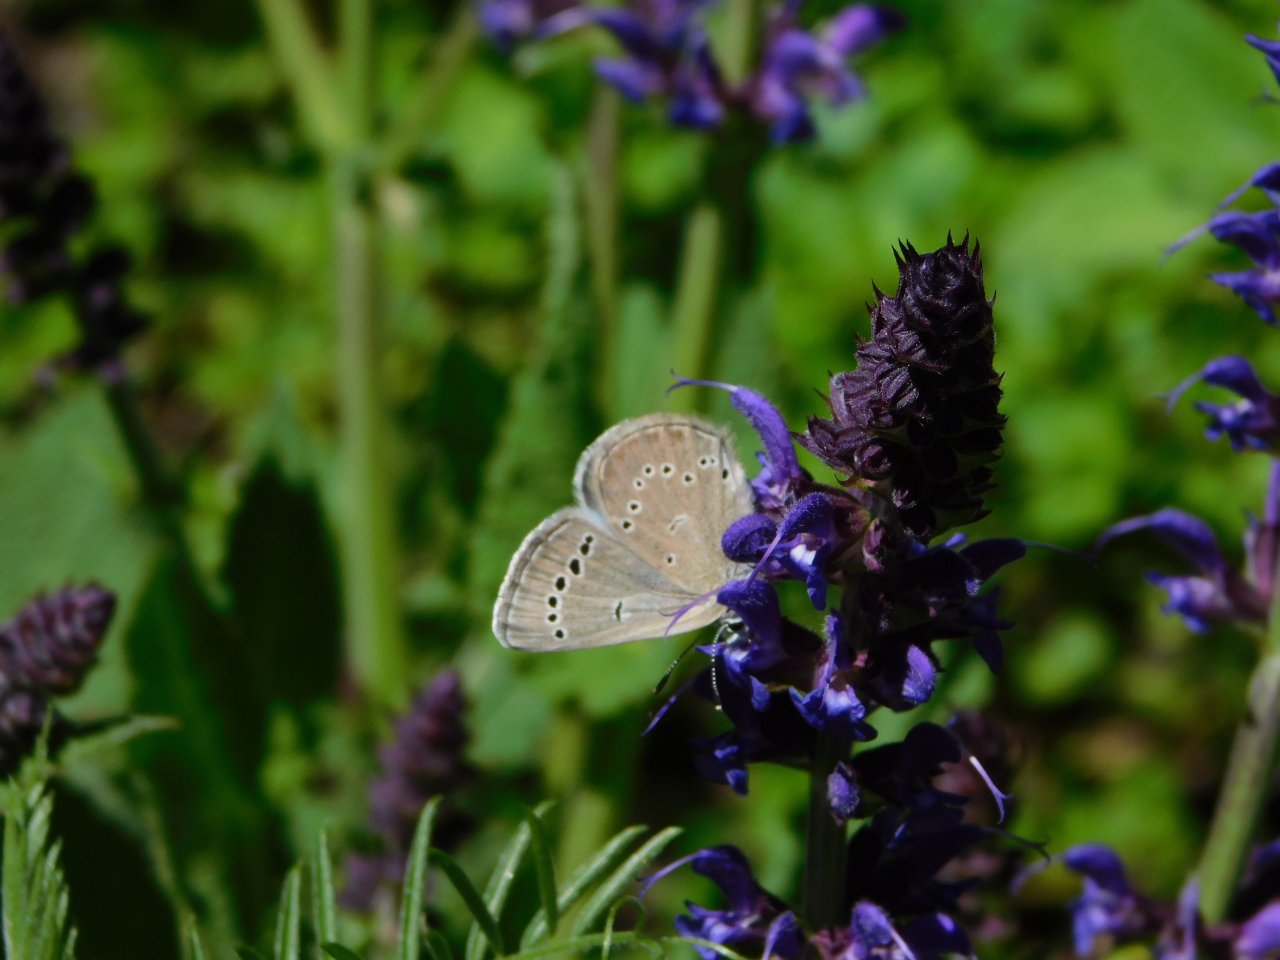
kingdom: Animalia
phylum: Arthropoda
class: Insecta
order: Lepidoptera
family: Lycaenidae
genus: Glaucopsyche
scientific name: Glaucopsyche lygdamus
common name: Silvery Blue
